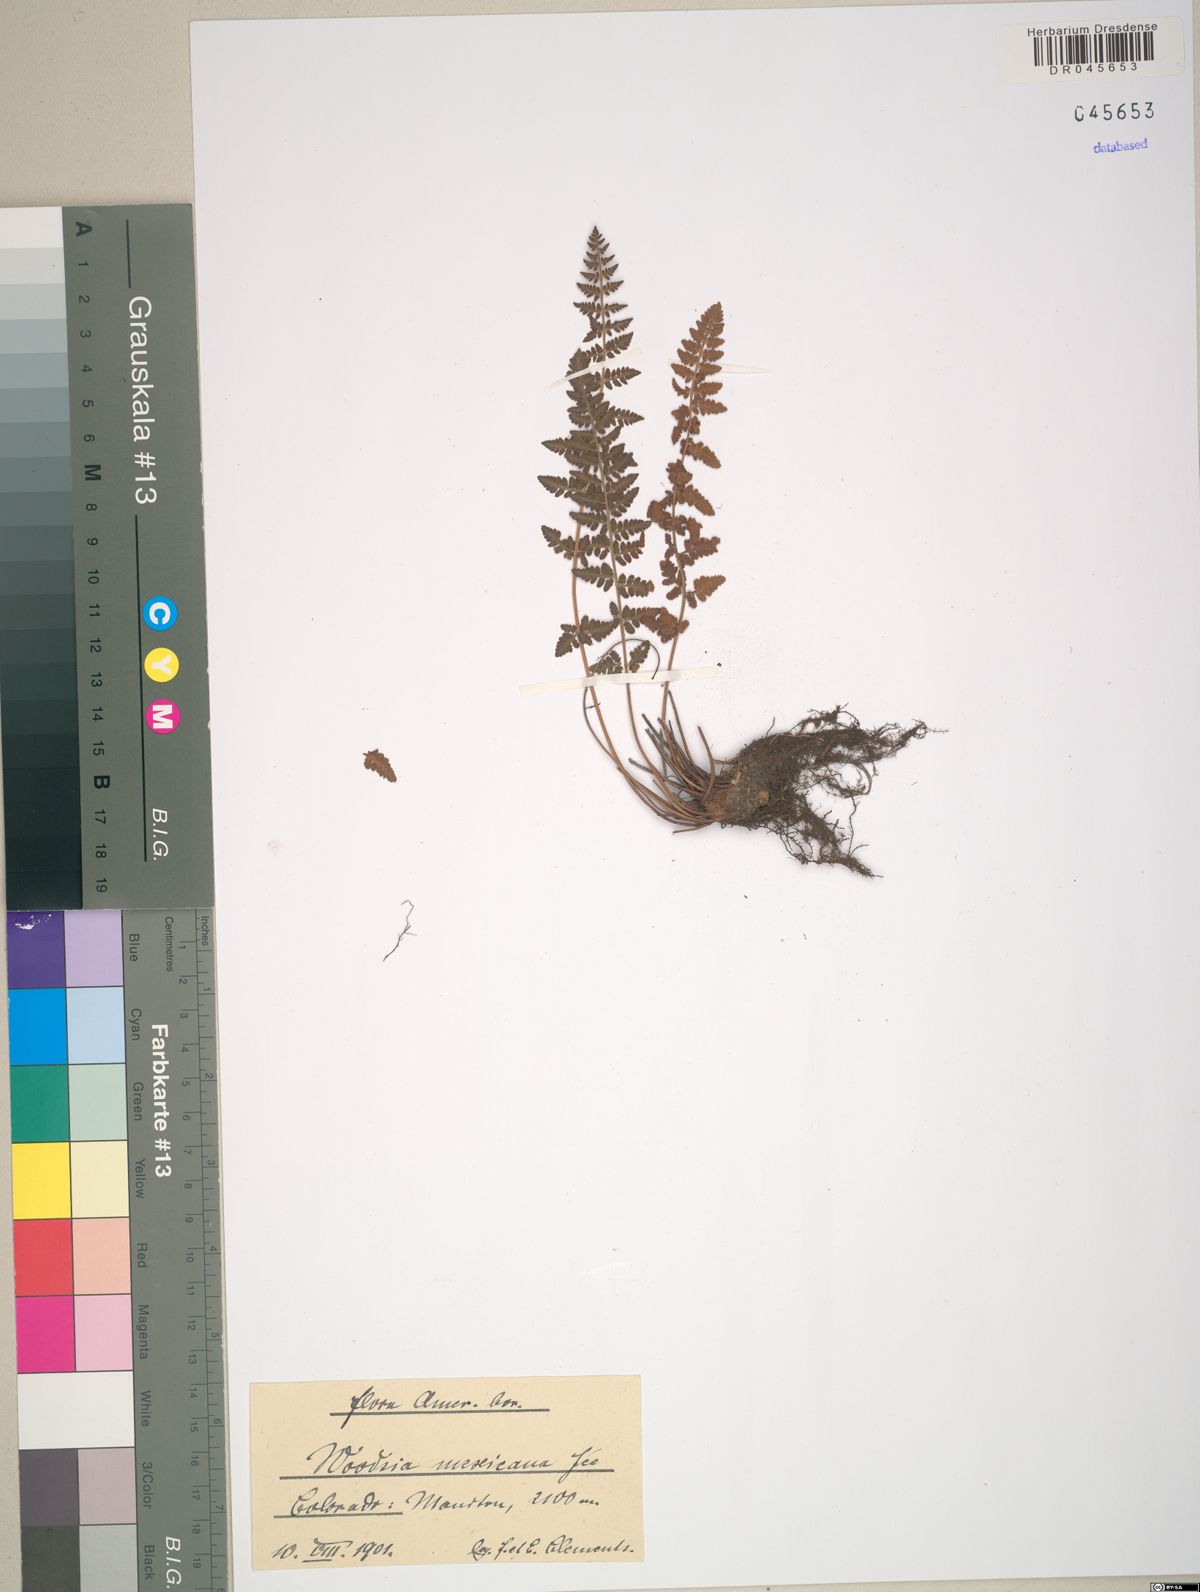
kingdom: Plantae
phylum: Tracheophyta
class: Polypodiopsida
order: Polypodiales
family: Woodsiaceae
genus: Physematium
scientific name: Physematium mexicanum
